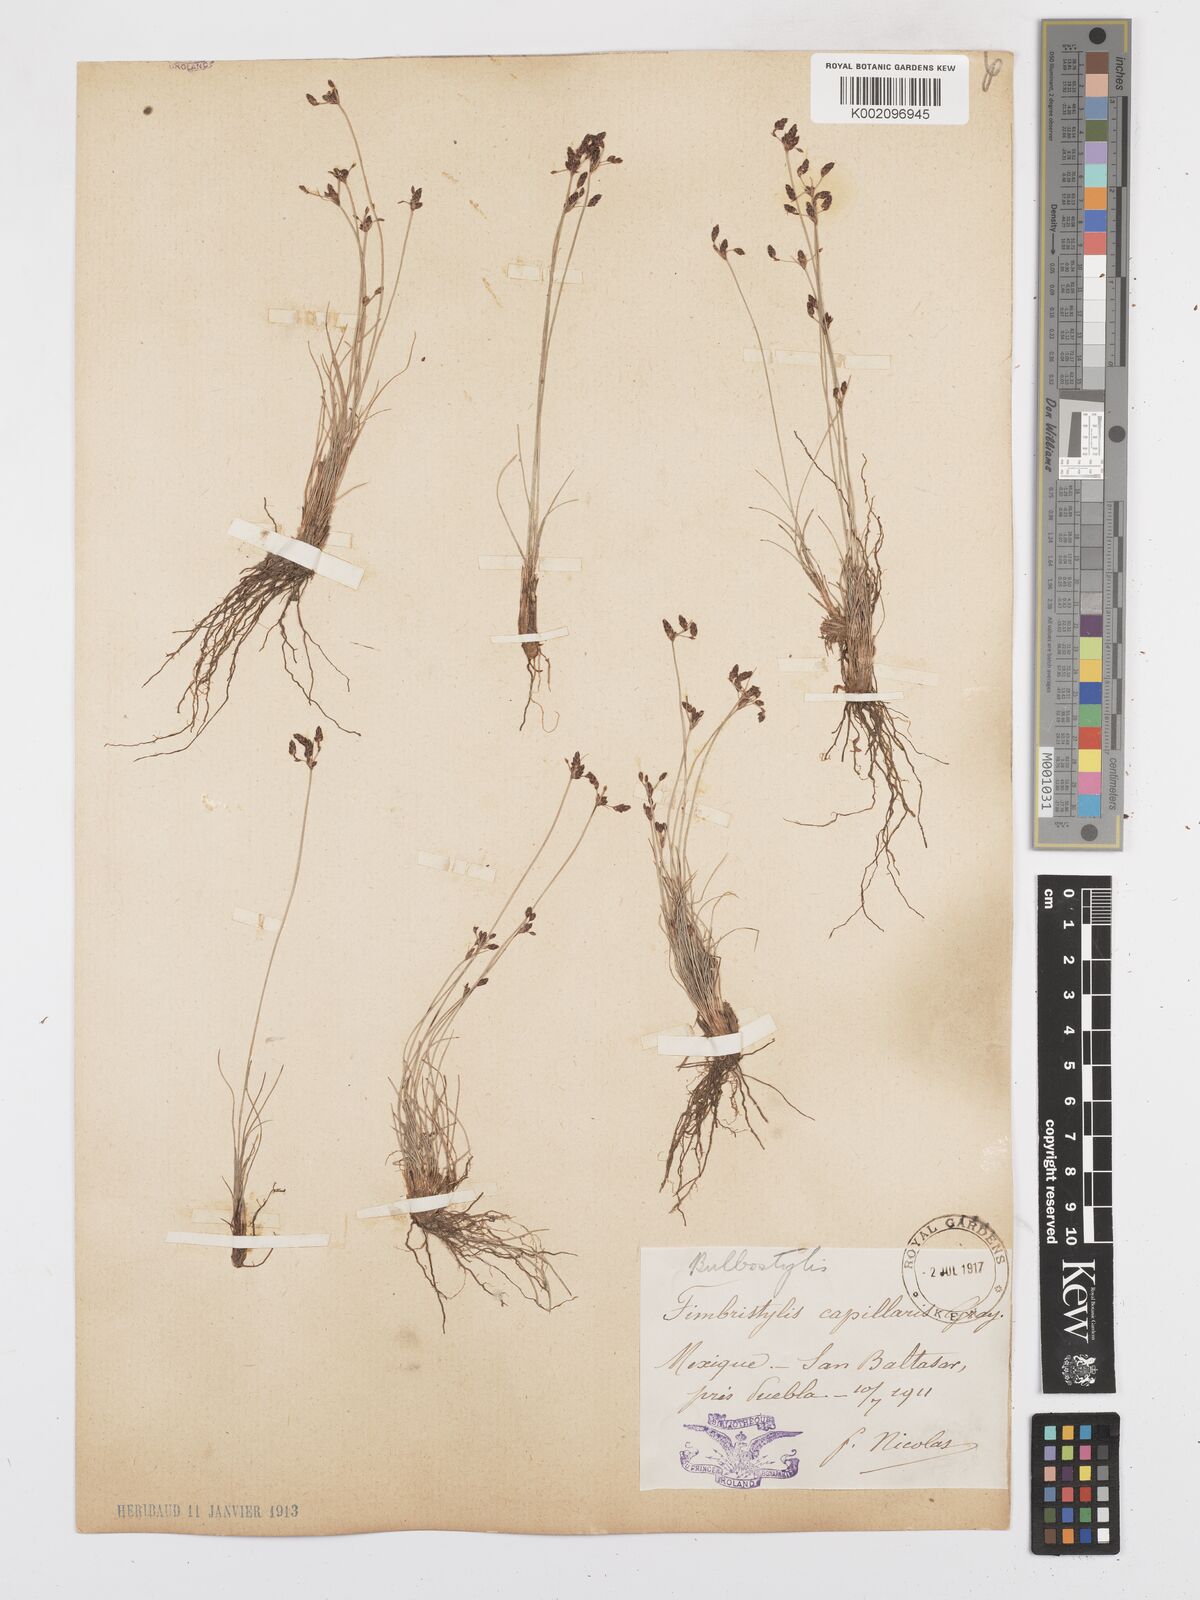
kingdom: Plantae
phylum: Tracheophyta
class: Liliopsida
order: Poales
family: Cyperaceae
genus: Bulbostylis
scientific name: Bulbostylis capillaris
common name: Densetuft hairsedge
